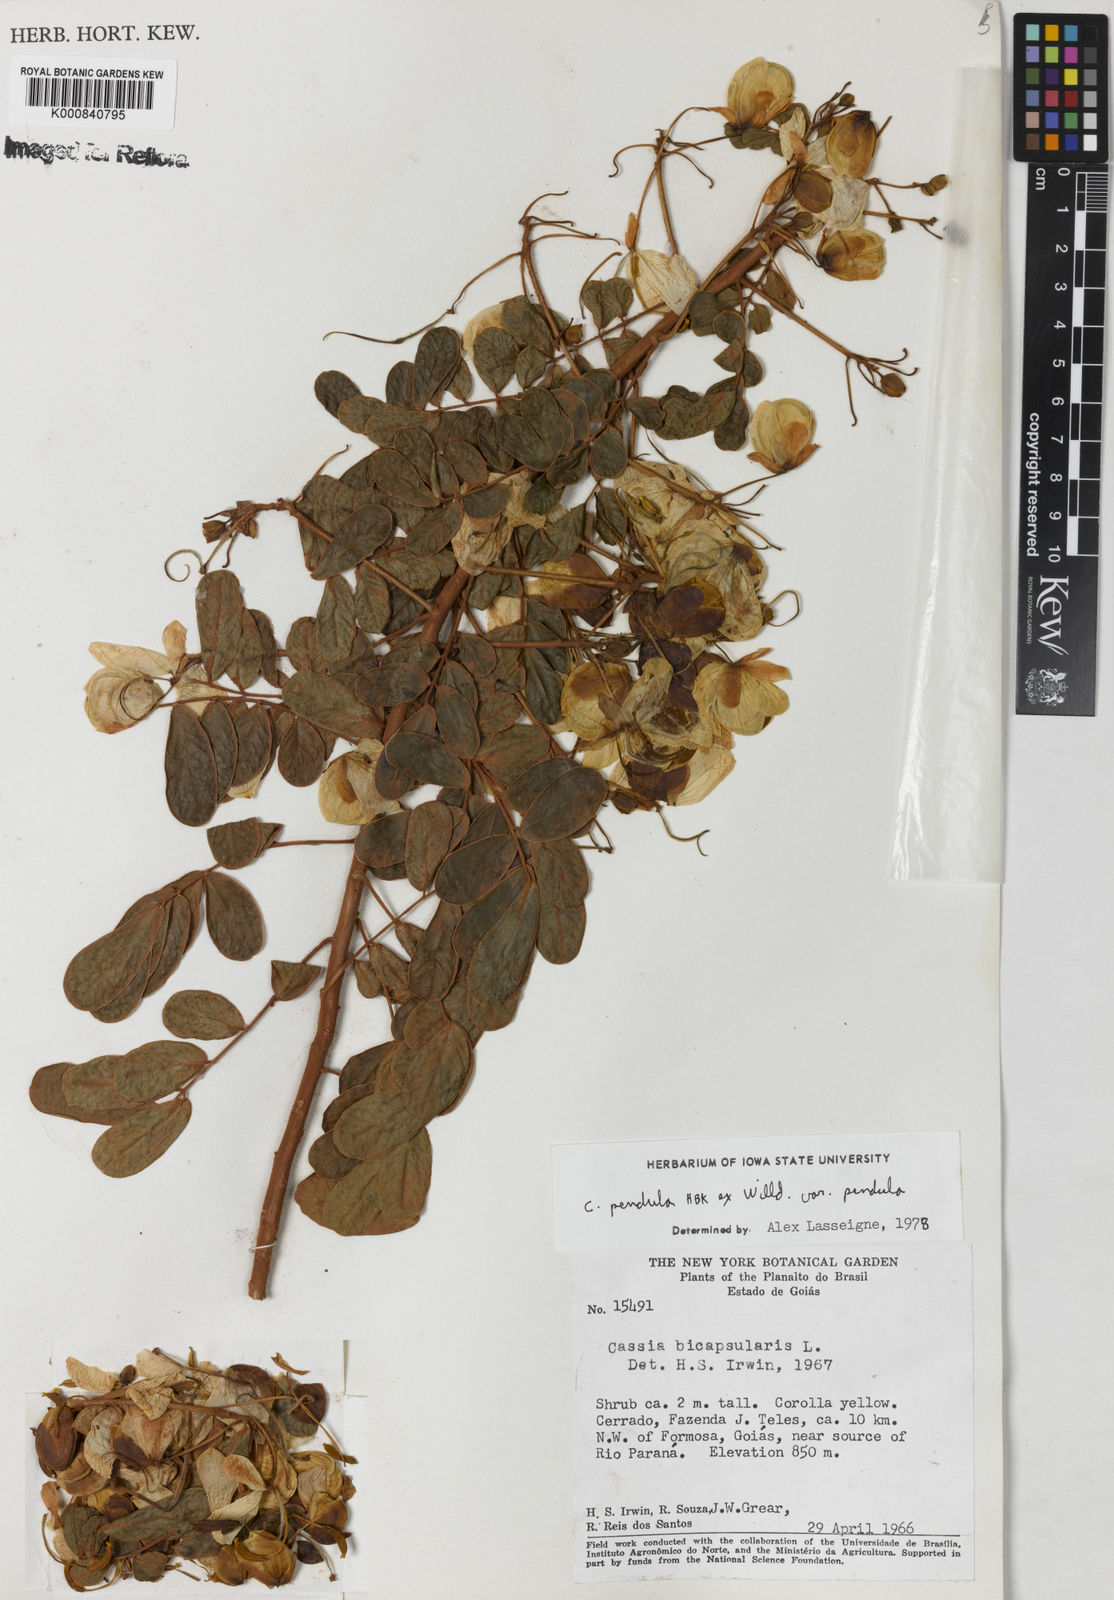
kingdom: Plantae
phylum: Tracheophyta
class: Magnoliopsida
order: Fabales
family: Fabaceae
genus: Senna
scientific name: Senna pendula
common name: Easter cassia
